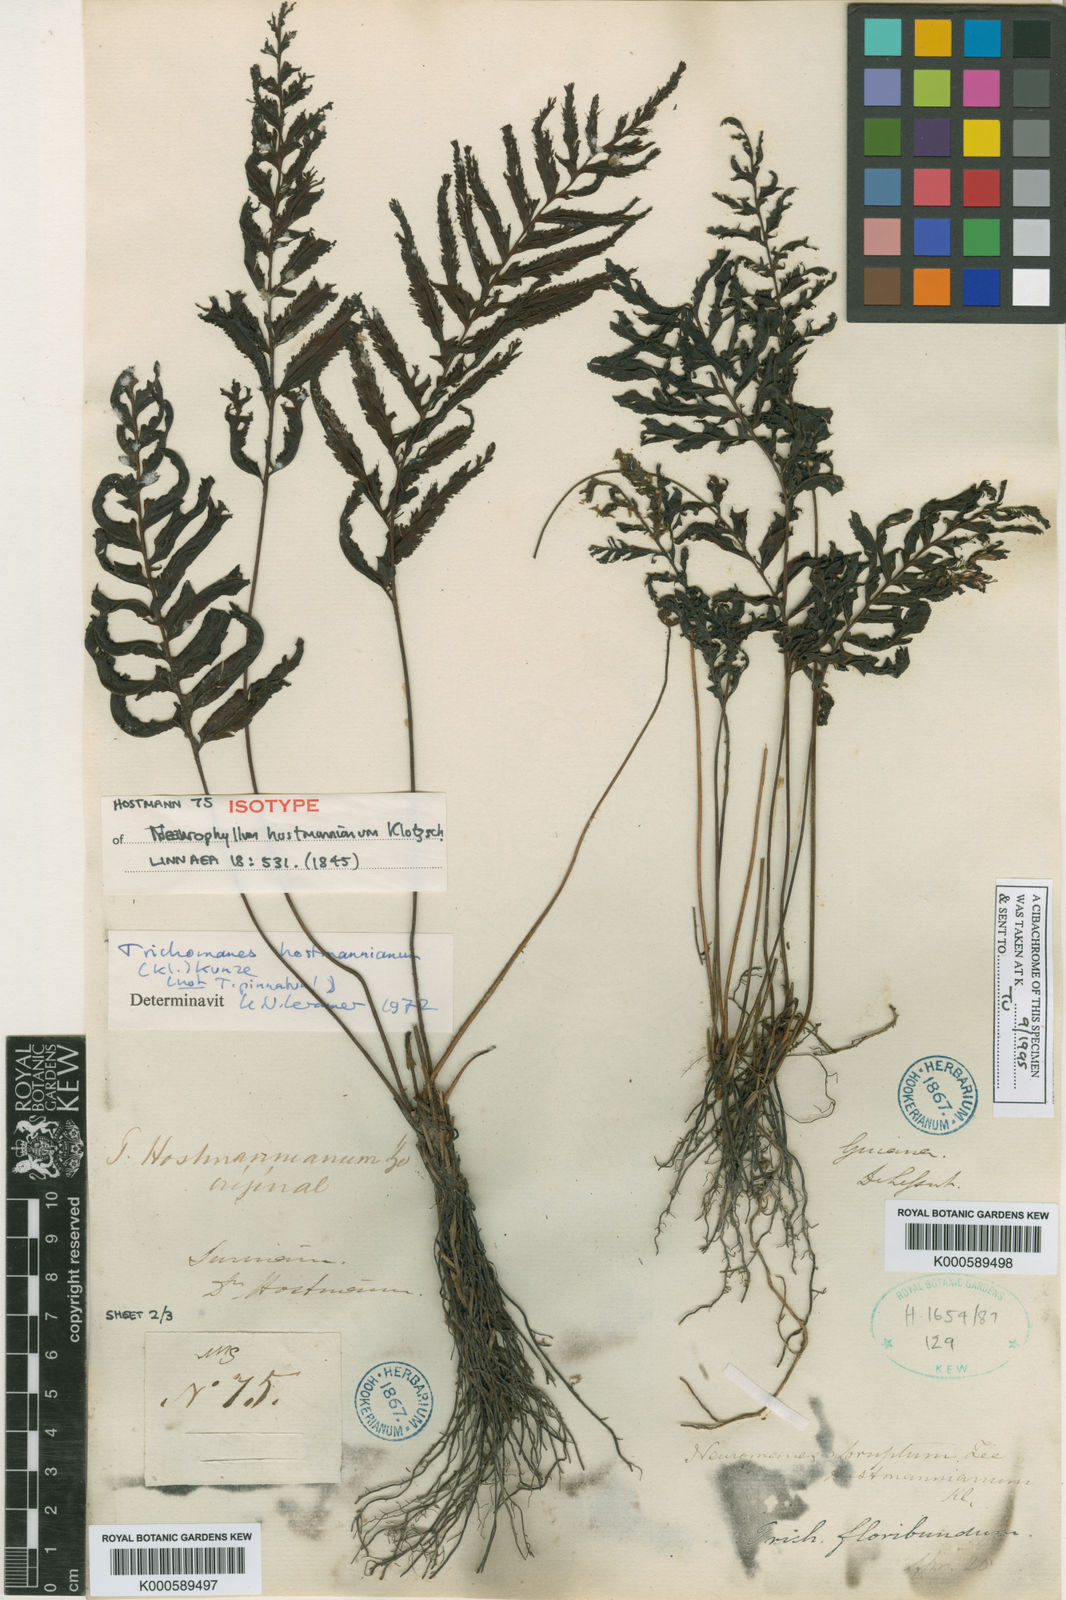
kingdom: Plantae
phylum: Tracheophyta
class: Polypodiopsida
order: Hymenophyllales
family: Hymenophyllaceae
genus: Trichomanes
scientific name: Trichomanes hostmannianum
